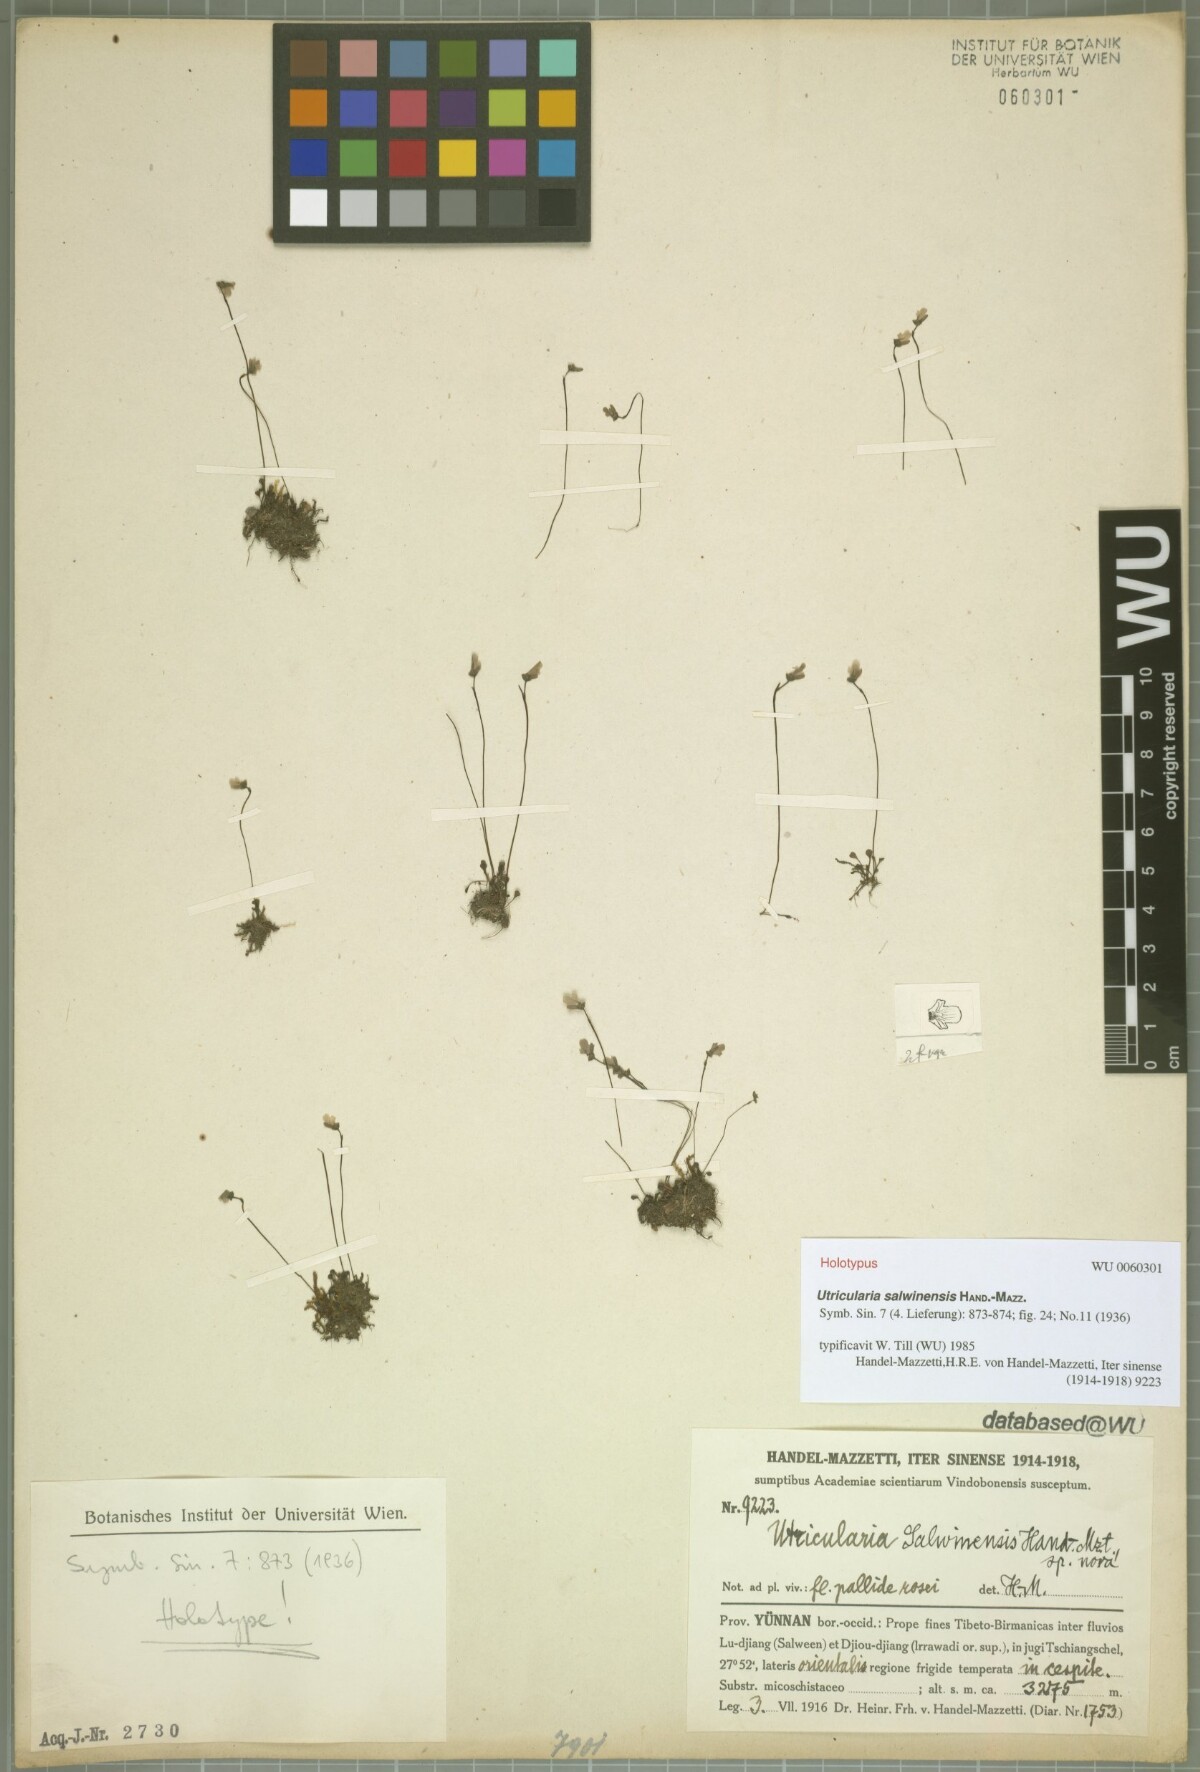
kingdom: Plantae
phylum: Tracheophyta
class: Magnoliopsida
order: Lamiales
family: Lentibulariaceae
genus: Utricularia
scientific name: Utricularia salwinensis
